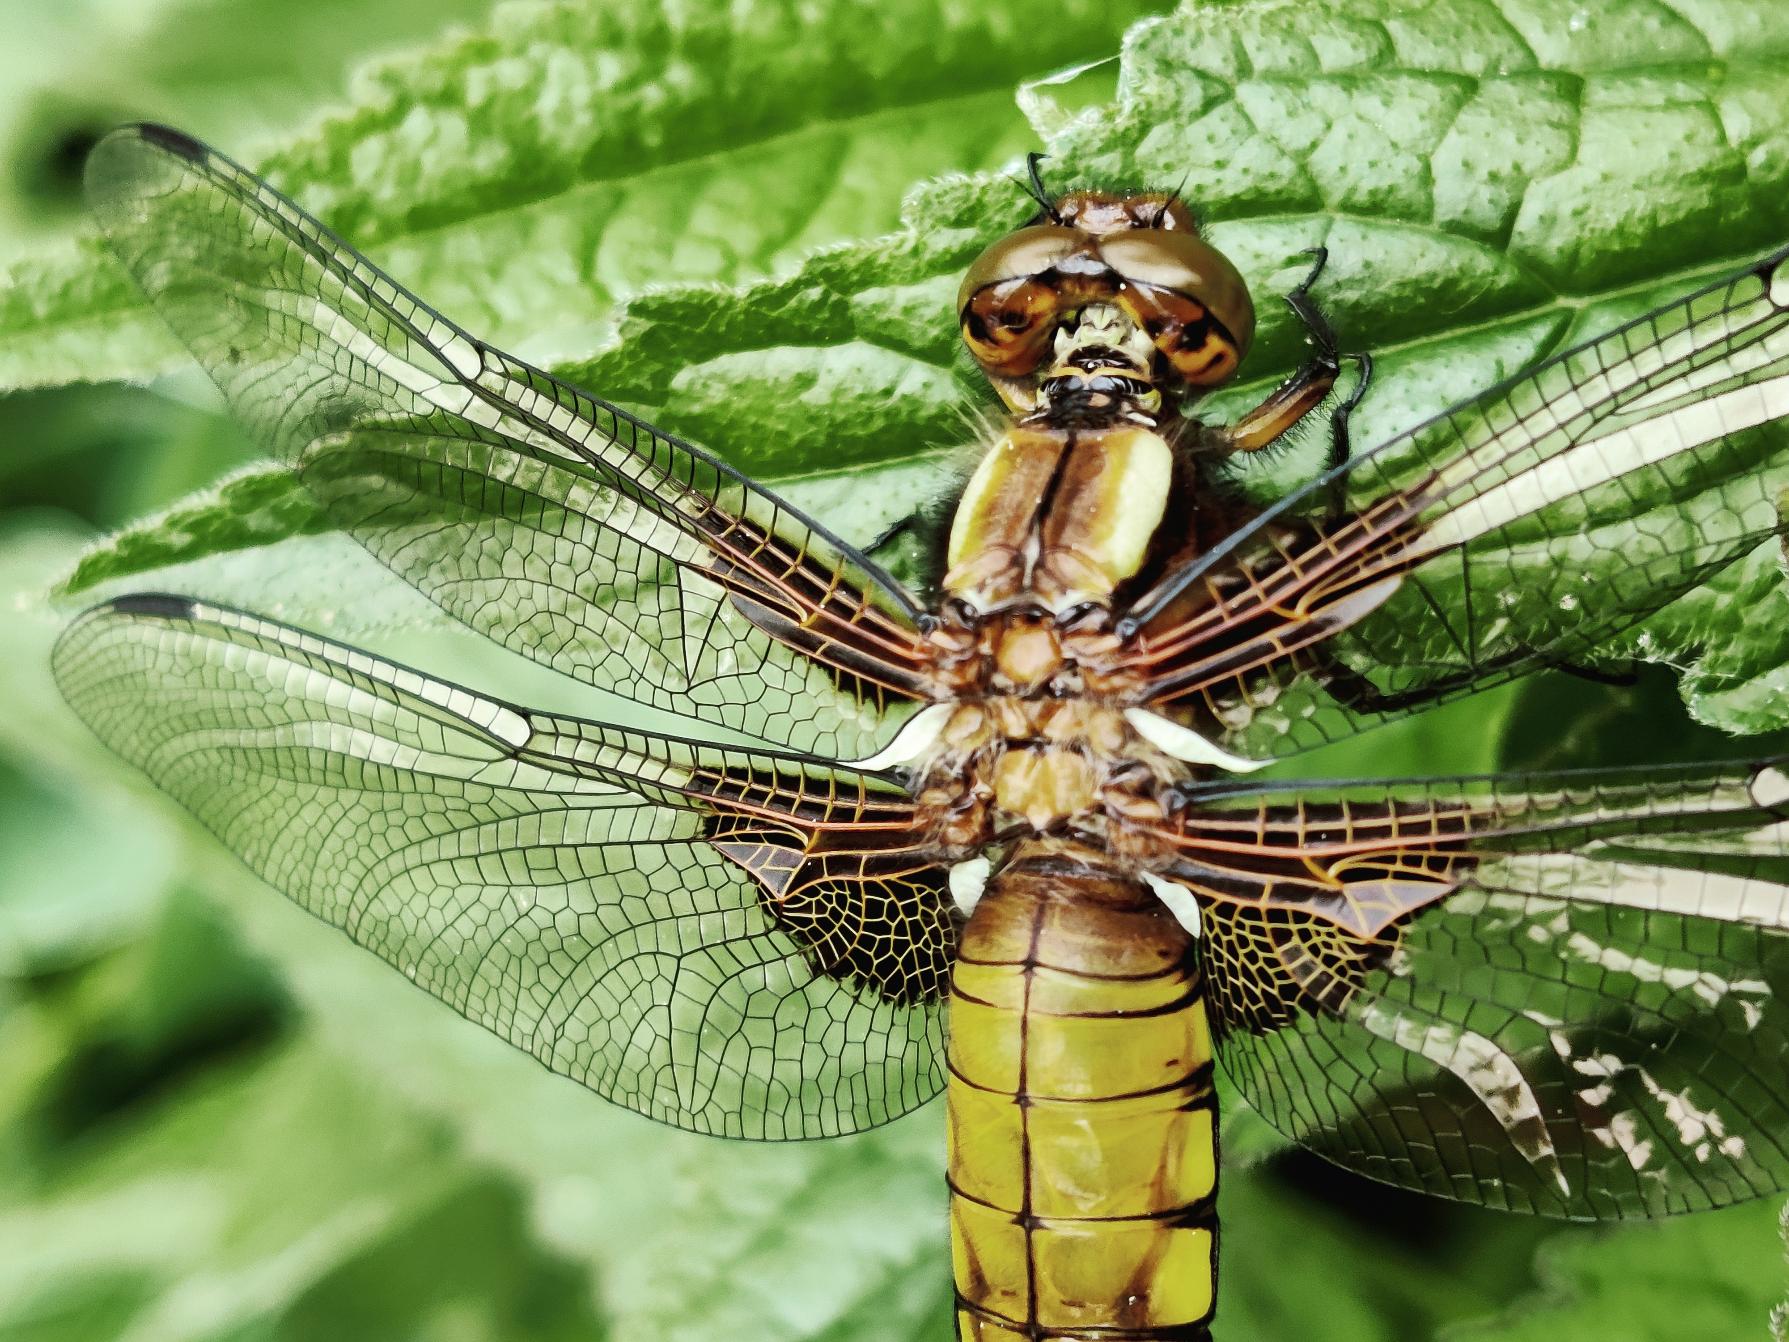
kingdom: Animalia
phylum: Arthropoda
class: Insecta
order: Odonata
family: Libellulidae
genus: Libellula
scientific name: Libellula depressa
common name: Blå libel
